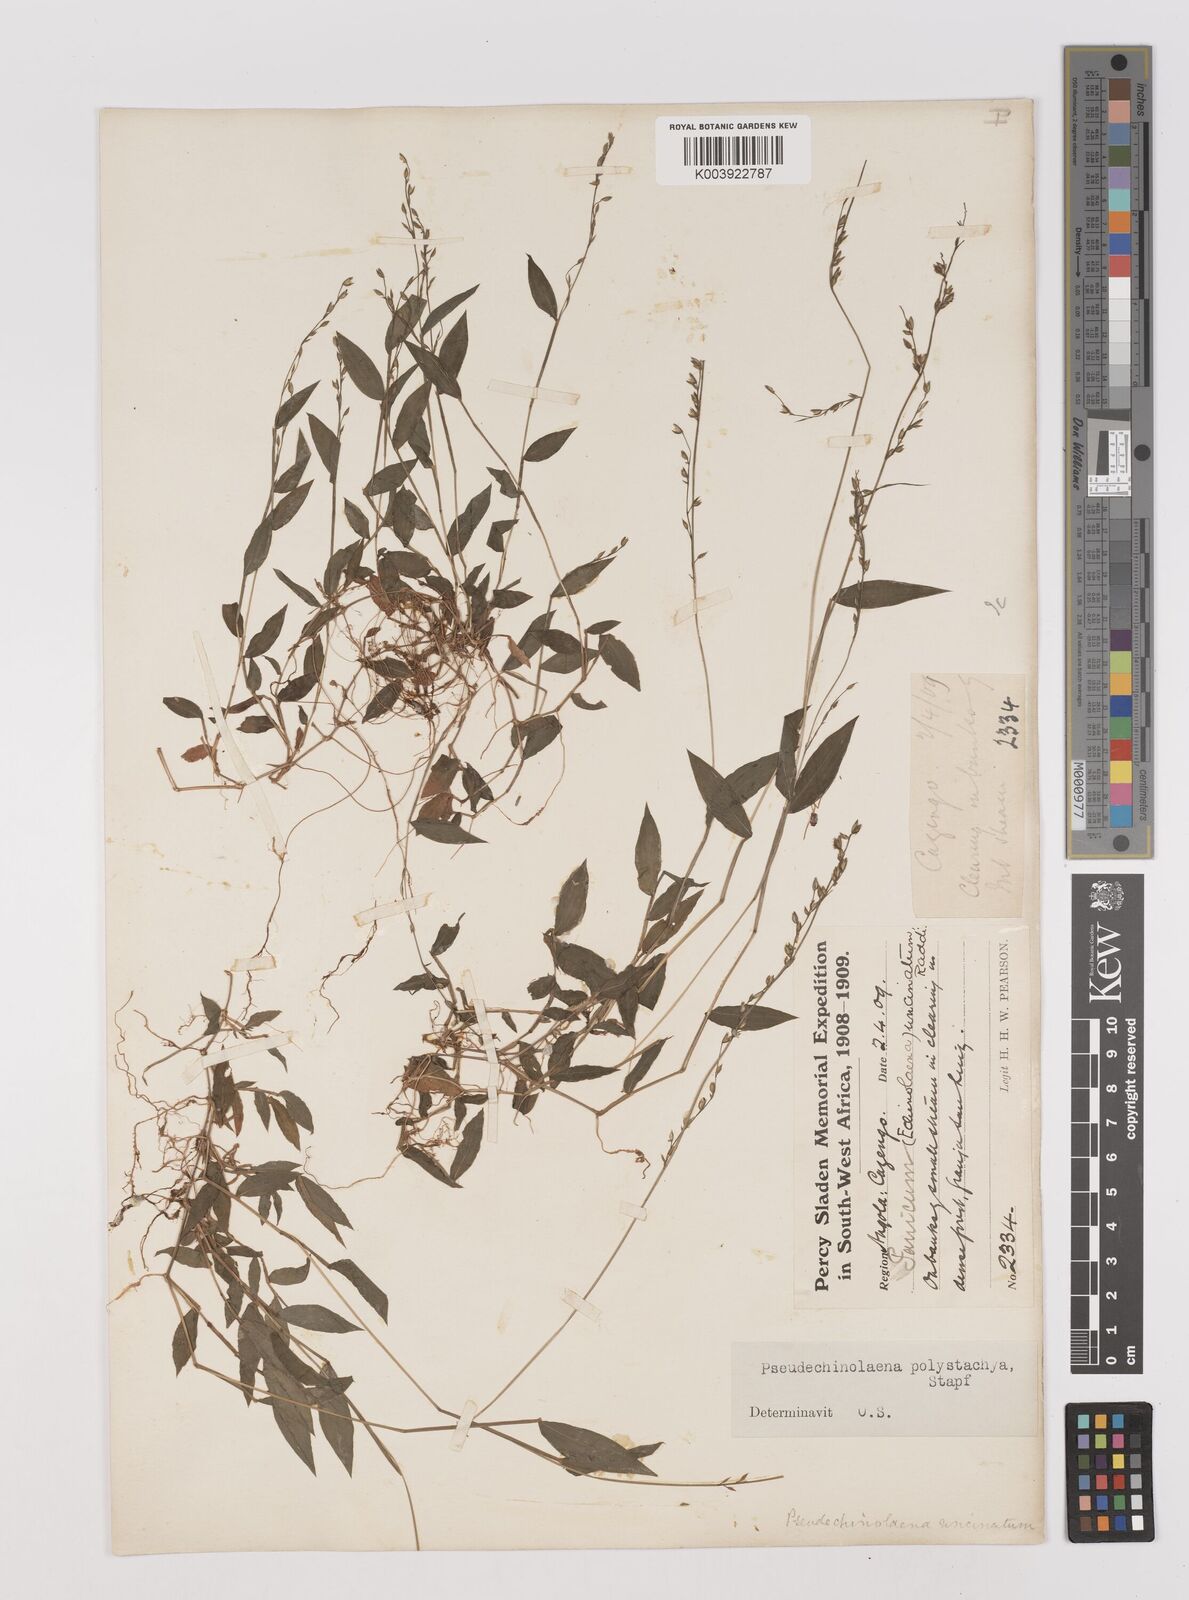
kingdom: Plantae
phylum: Tracheophyta
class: Liliopsida
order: Poales
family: Poaceae
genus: Pseudechinolaena
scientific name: Pseudechinolaena polystachya
